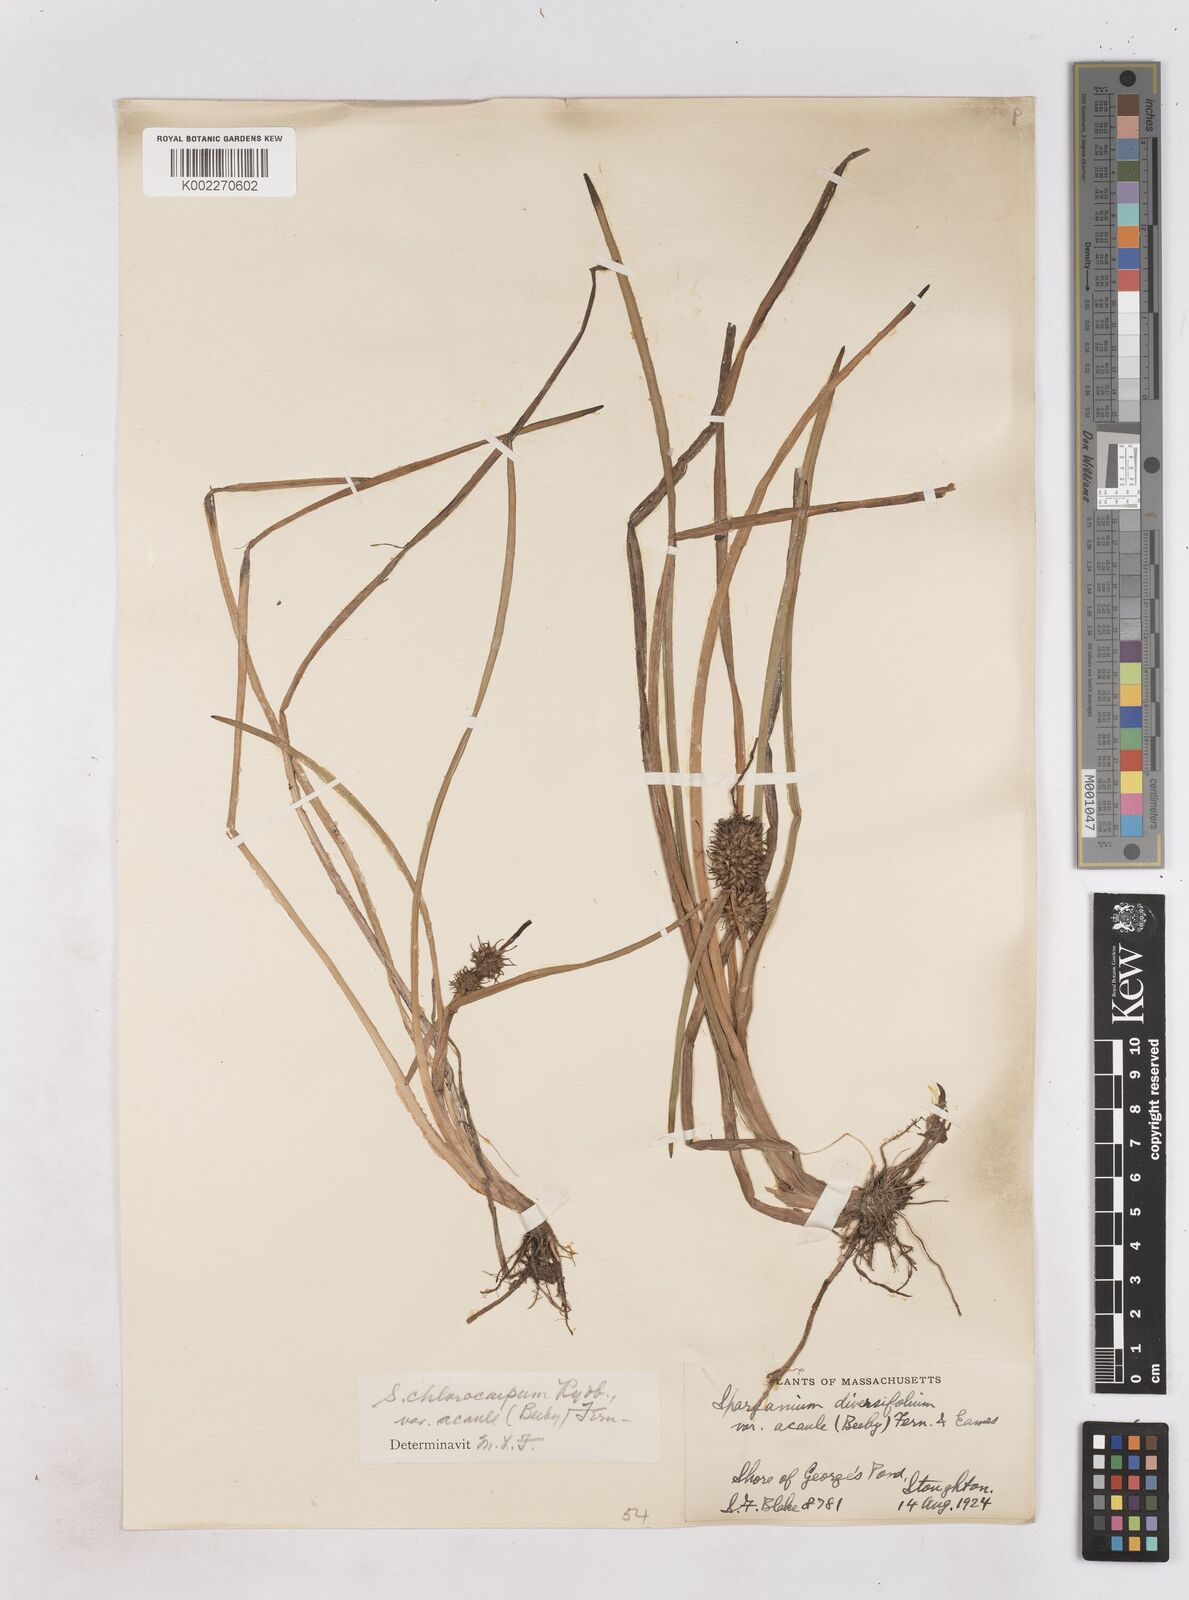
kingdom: Plantae
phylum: Tracheophyta
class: Liliopsida
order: Poales
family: Typhaceae
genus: Sparganium
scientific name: Sparganium emersum
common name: Unbranched bur-reed
